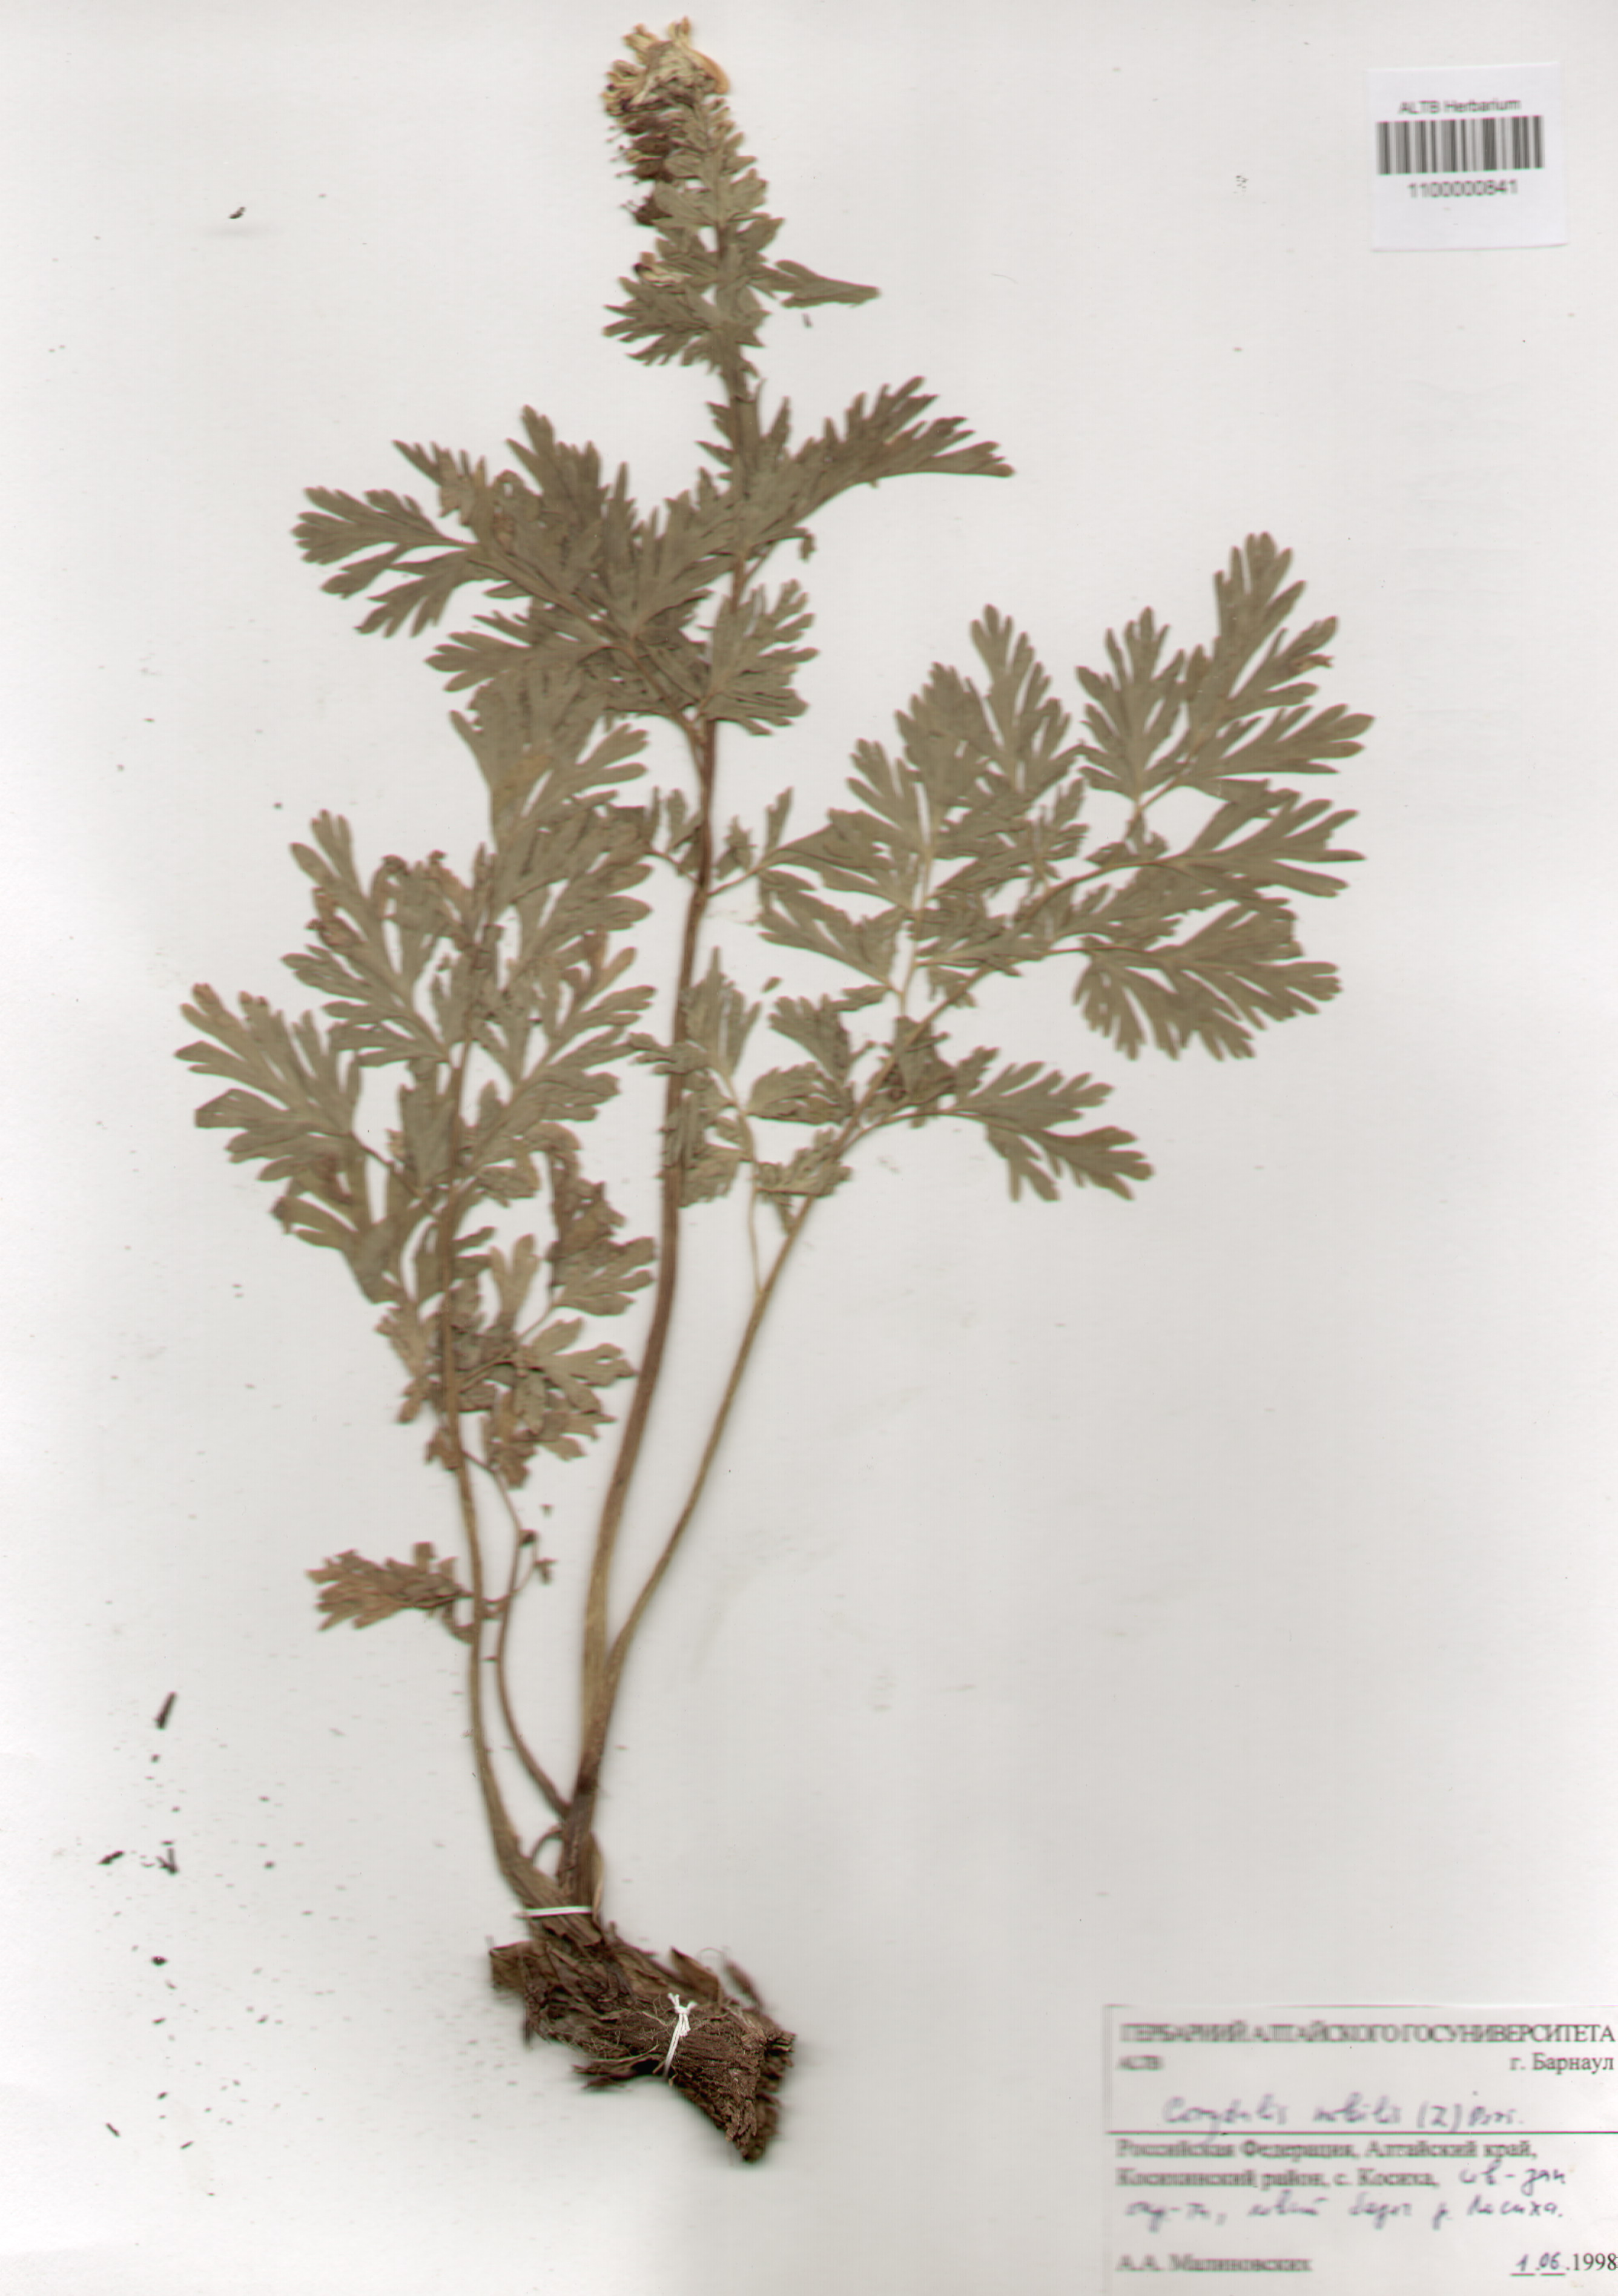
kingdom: Plantae
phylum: Tracheophyta
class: Magnoliopsida
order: Ranunculales
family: Papaveraceae
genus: Corydalis
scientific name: Corydalis nobilis
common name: Siberian corydalis
